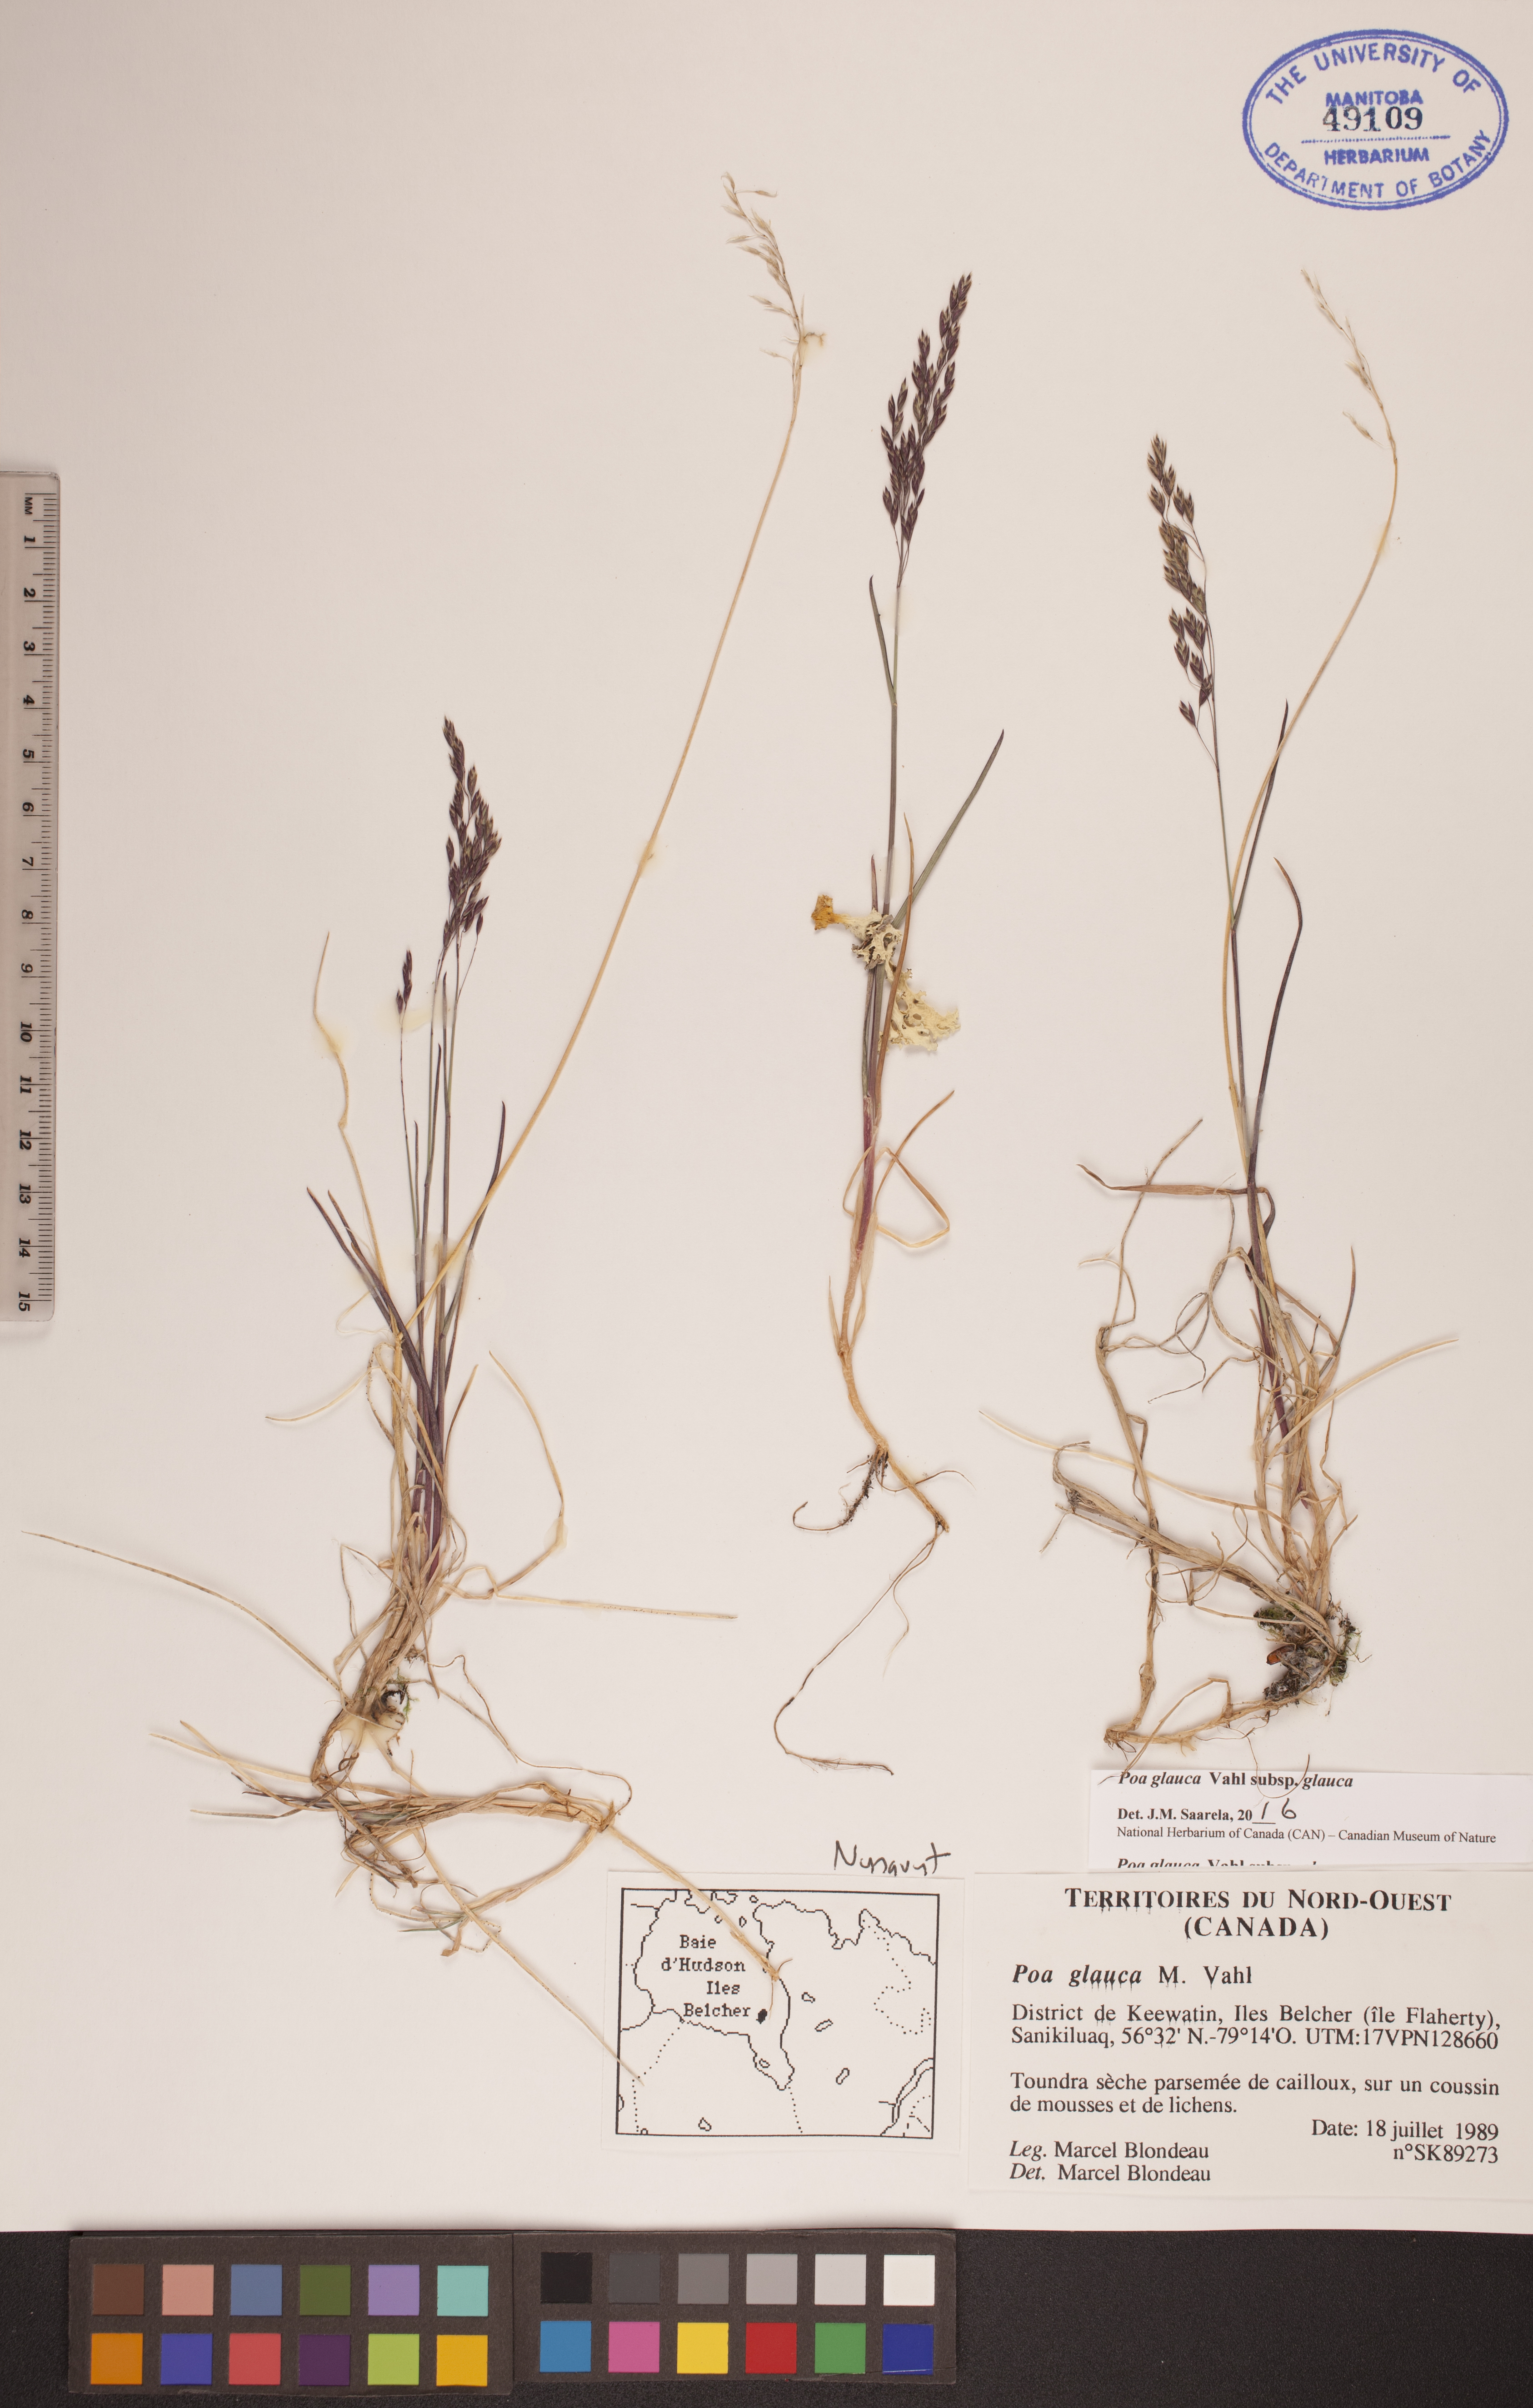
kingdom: Plantae
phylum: Tracheophyta
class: Liliopsida
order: Poales
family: Poaceae
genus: Poa
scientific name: Poa glauca
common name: Glaucous bluegrass
